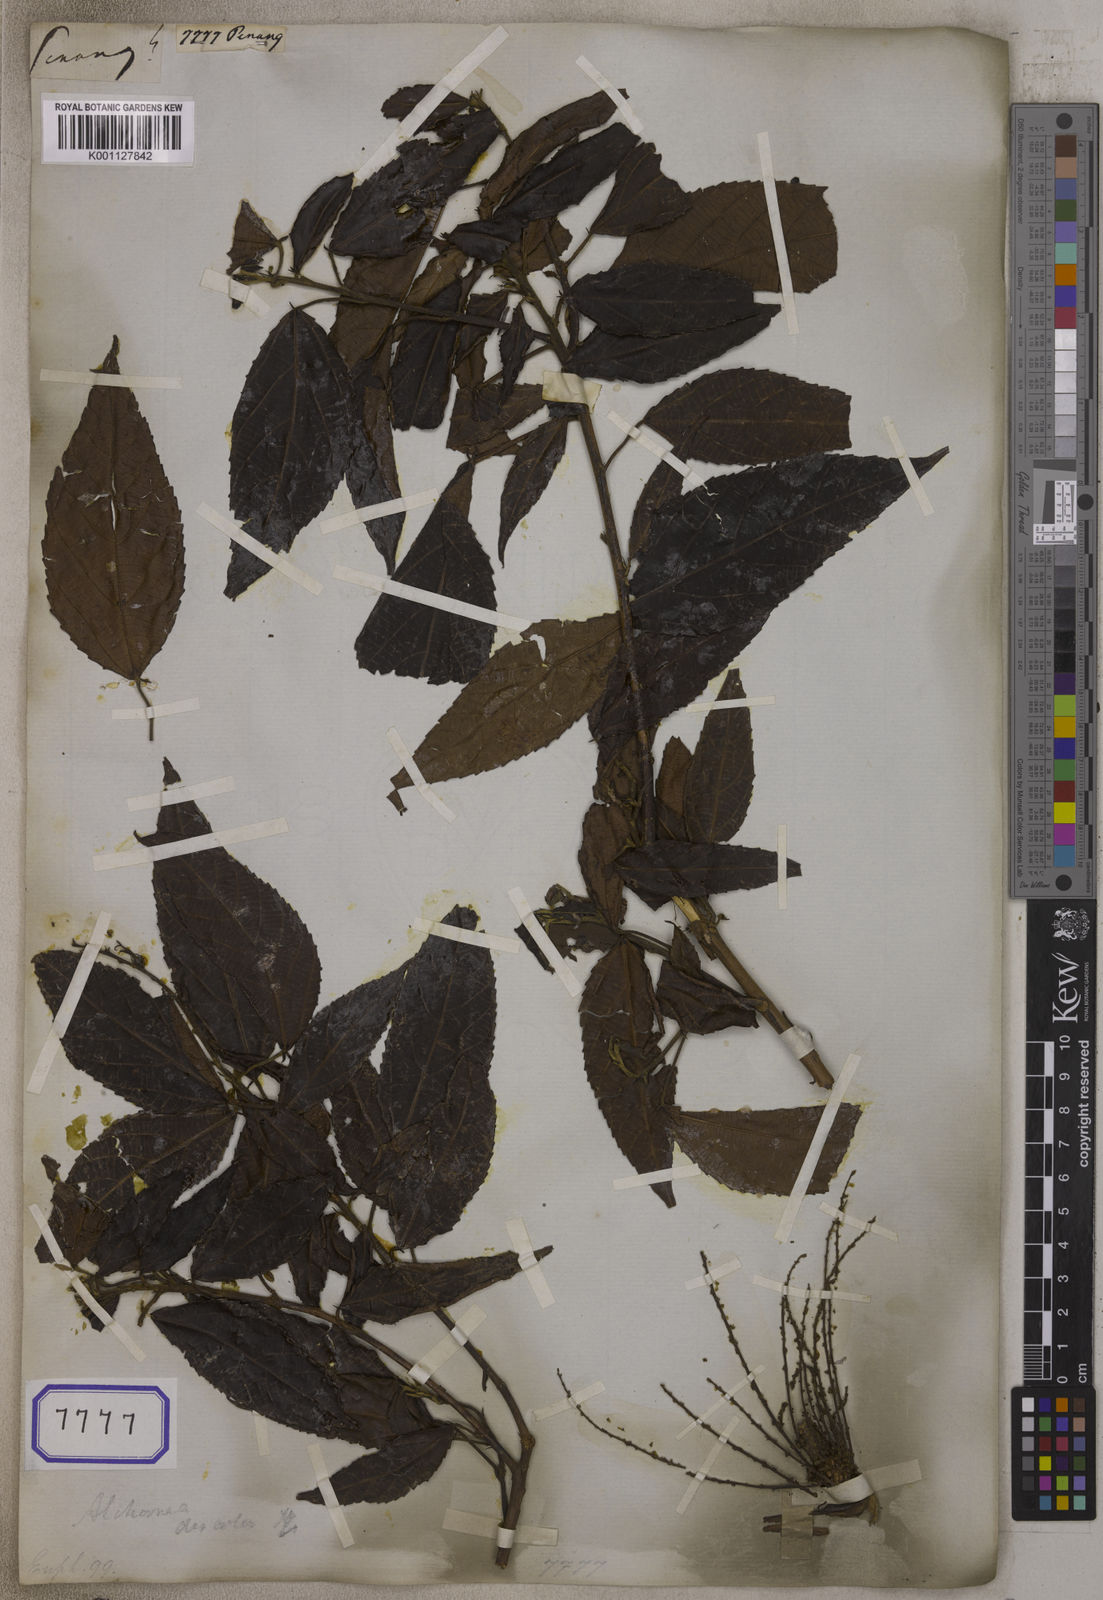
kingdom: Plantae
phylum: Tracheophyta
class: Magnoliopsida
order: Malpighiales
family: Euphorbiaceae
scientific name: Euphorbiaceae
